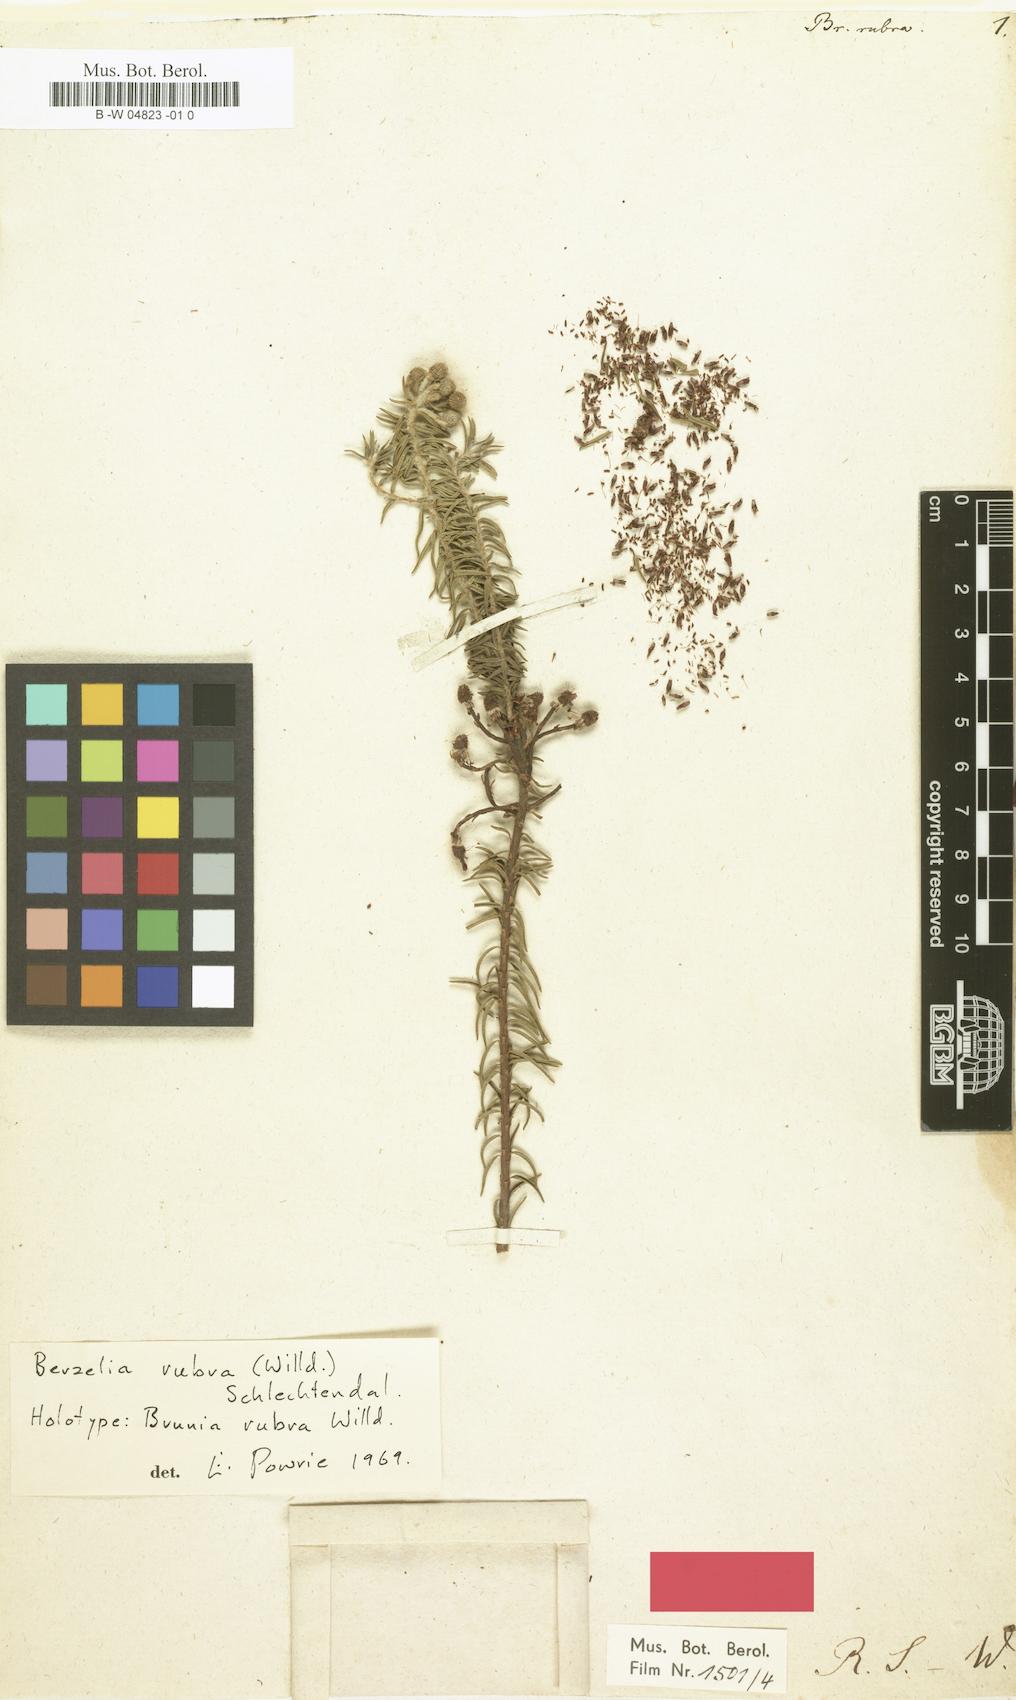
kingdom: Plantae
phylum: Tracheophyta
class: Magnoliopsida
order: Bruniales
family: Bruniaceae
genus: Berzelia
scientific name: Berzelia rubra
